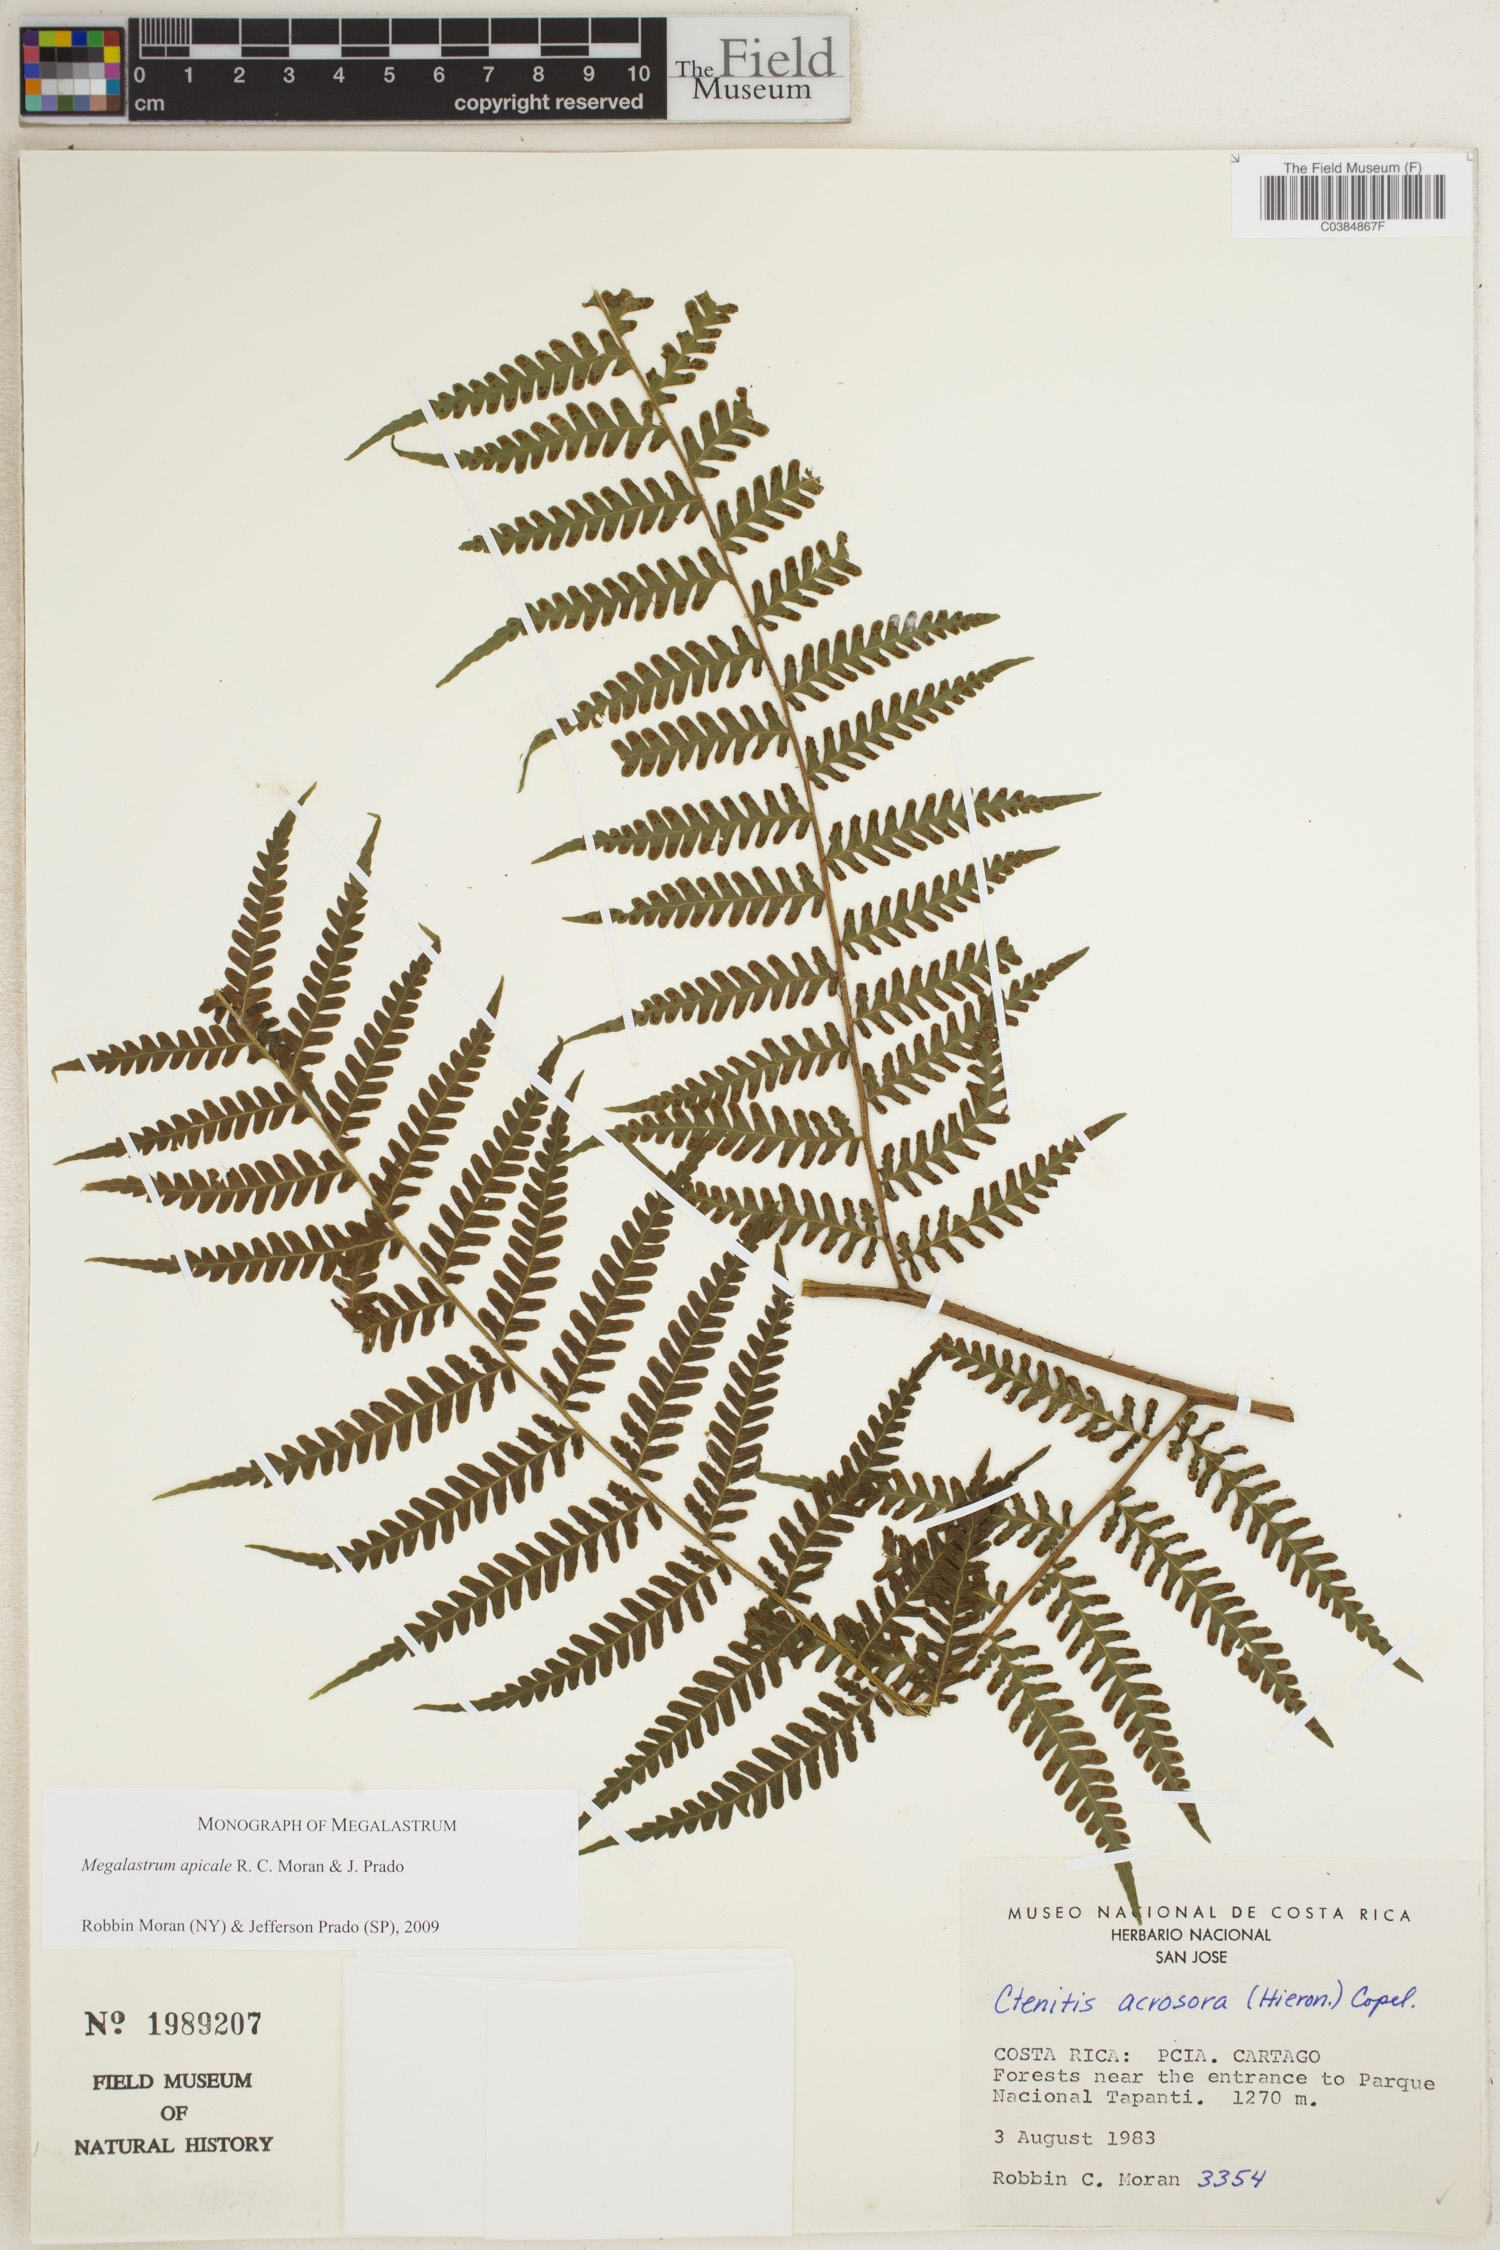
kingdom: Plantae
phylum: Tracheophyta
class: Polypodiopsida
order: Polypodiales
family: Dryopteridaceae
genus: Megalastrum
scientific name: Megalastrum apicale
